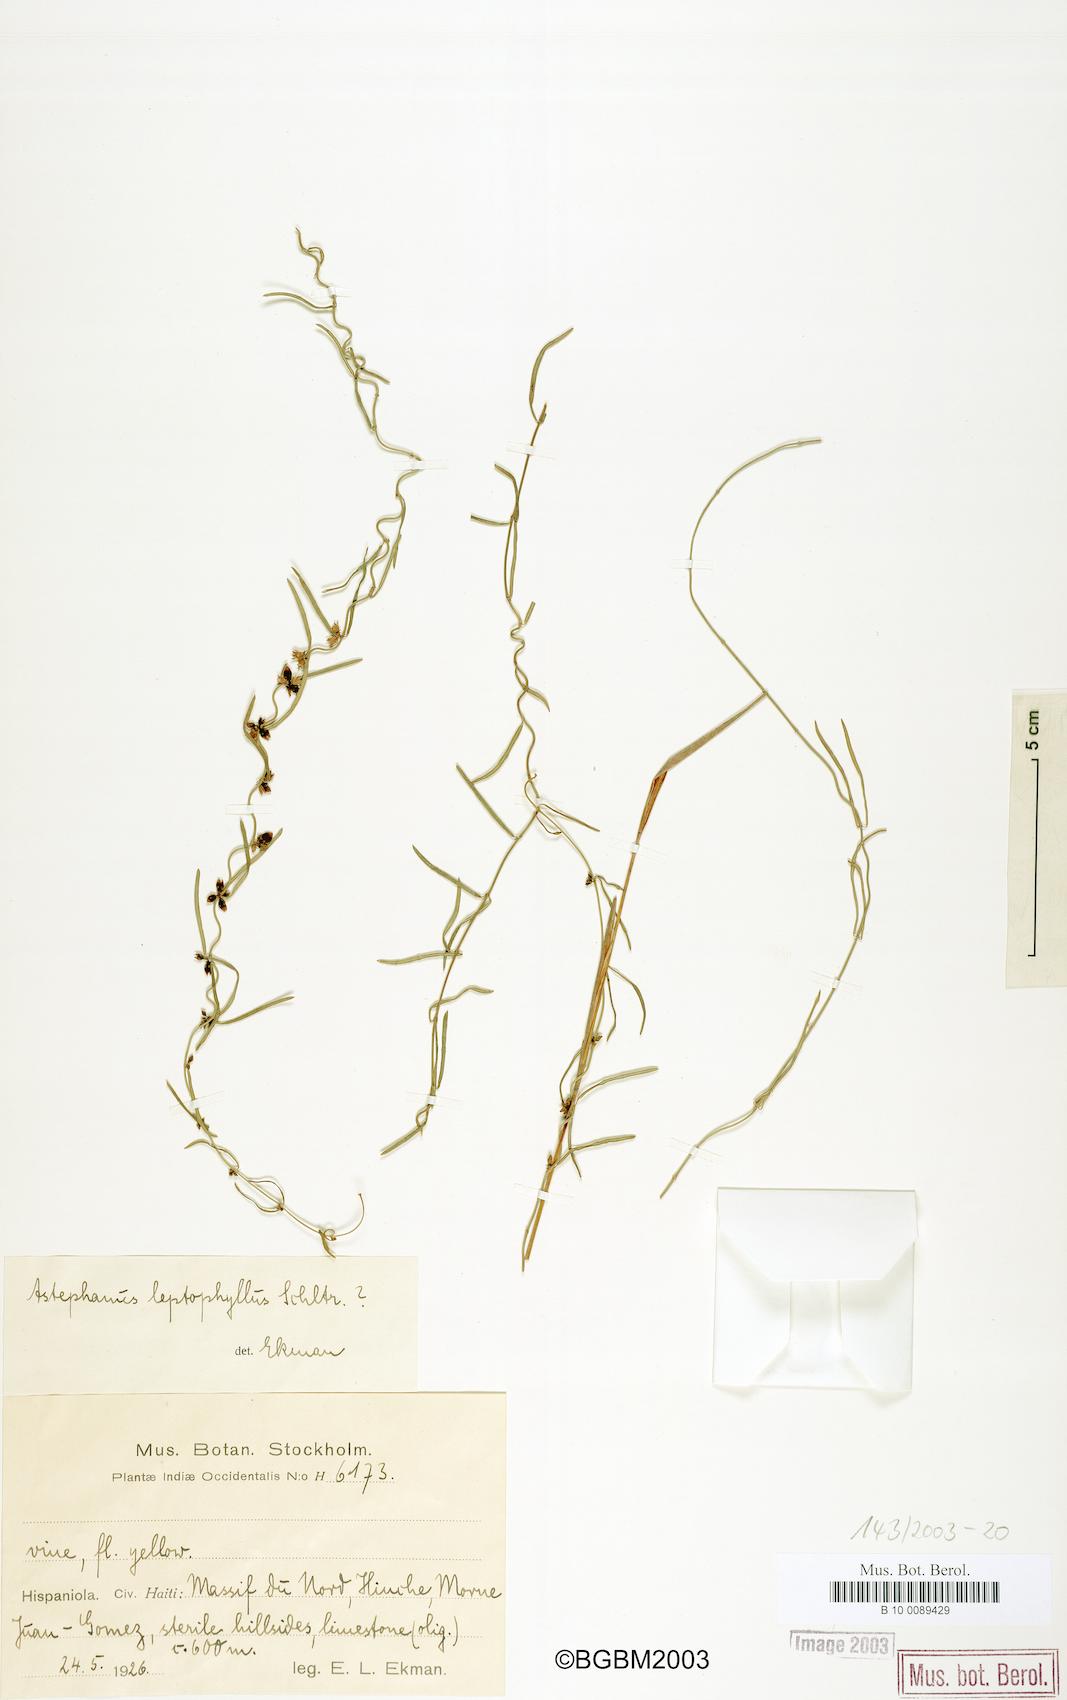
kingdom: Plantae
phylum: Tracheophyta
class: Magnoliopsida
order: Gentianales
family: Apocynaceae
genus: Metastelma
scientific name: Metastelma leptophyllum
